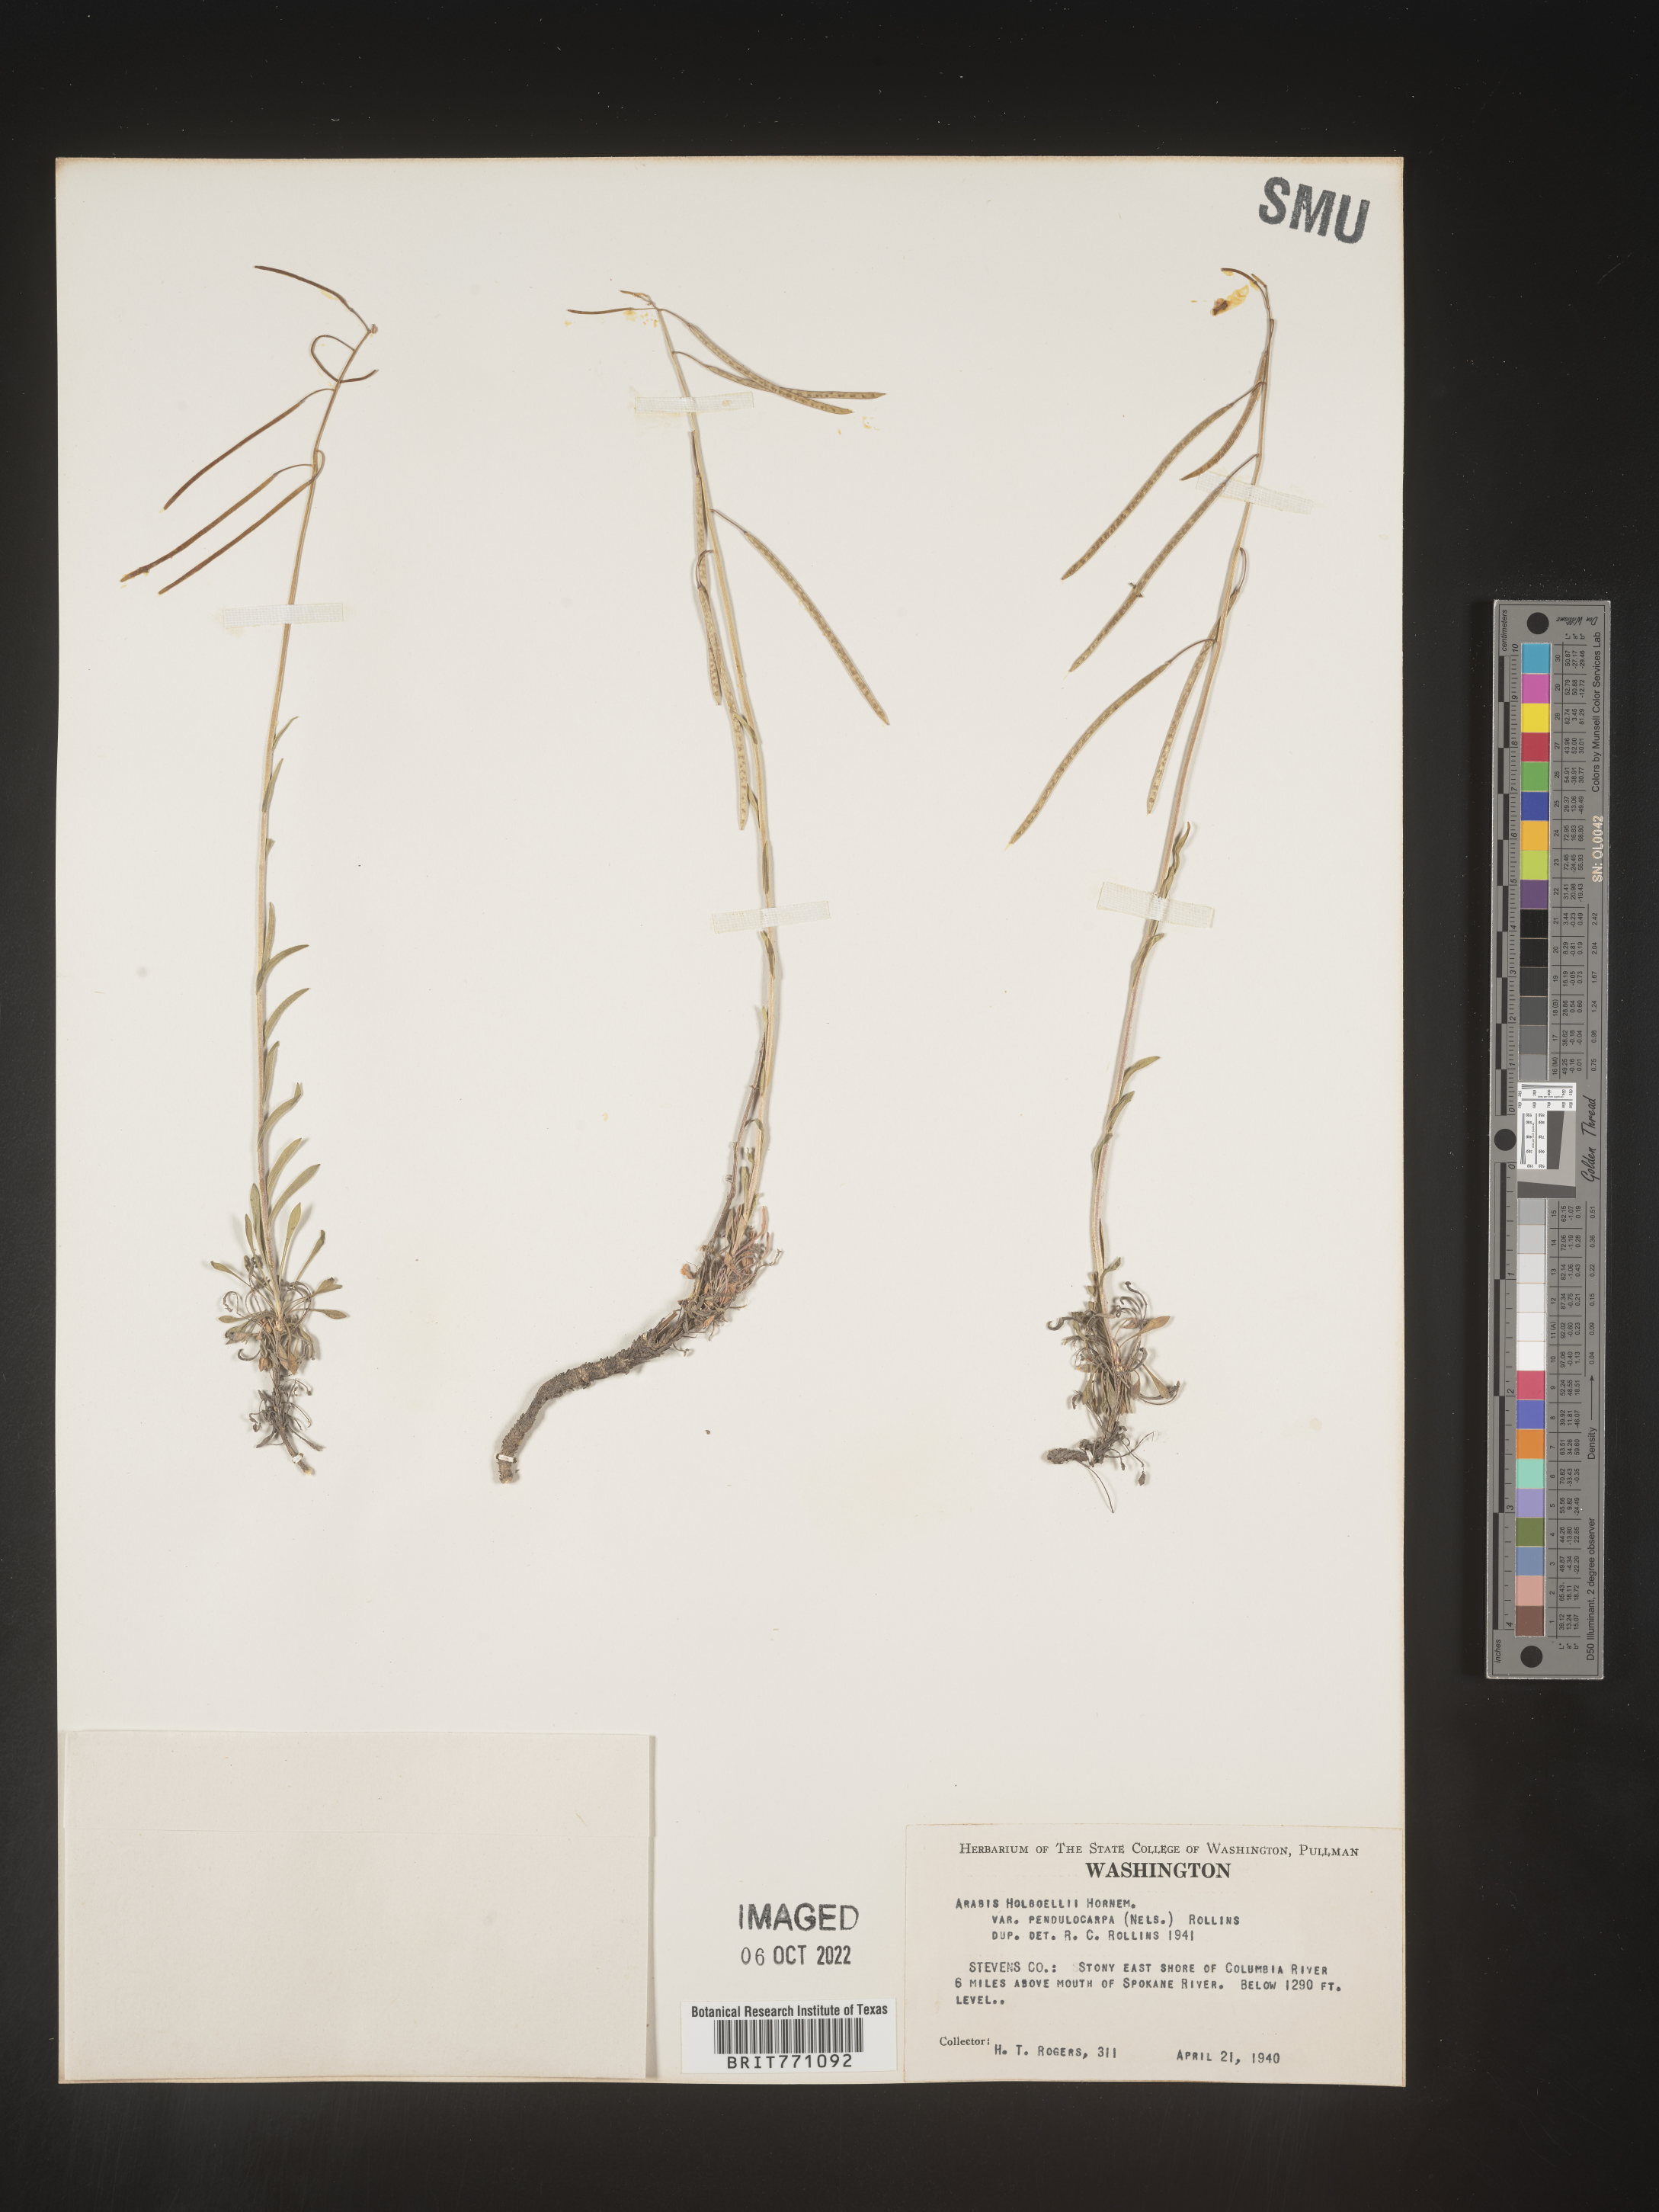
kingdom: Plantae
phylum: Tracheophyta
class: Magnoliopsida
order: Brassicales
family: Brassicaceae
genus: Boechera
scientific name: Boechera holboellii
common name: Holboell's rockcress
